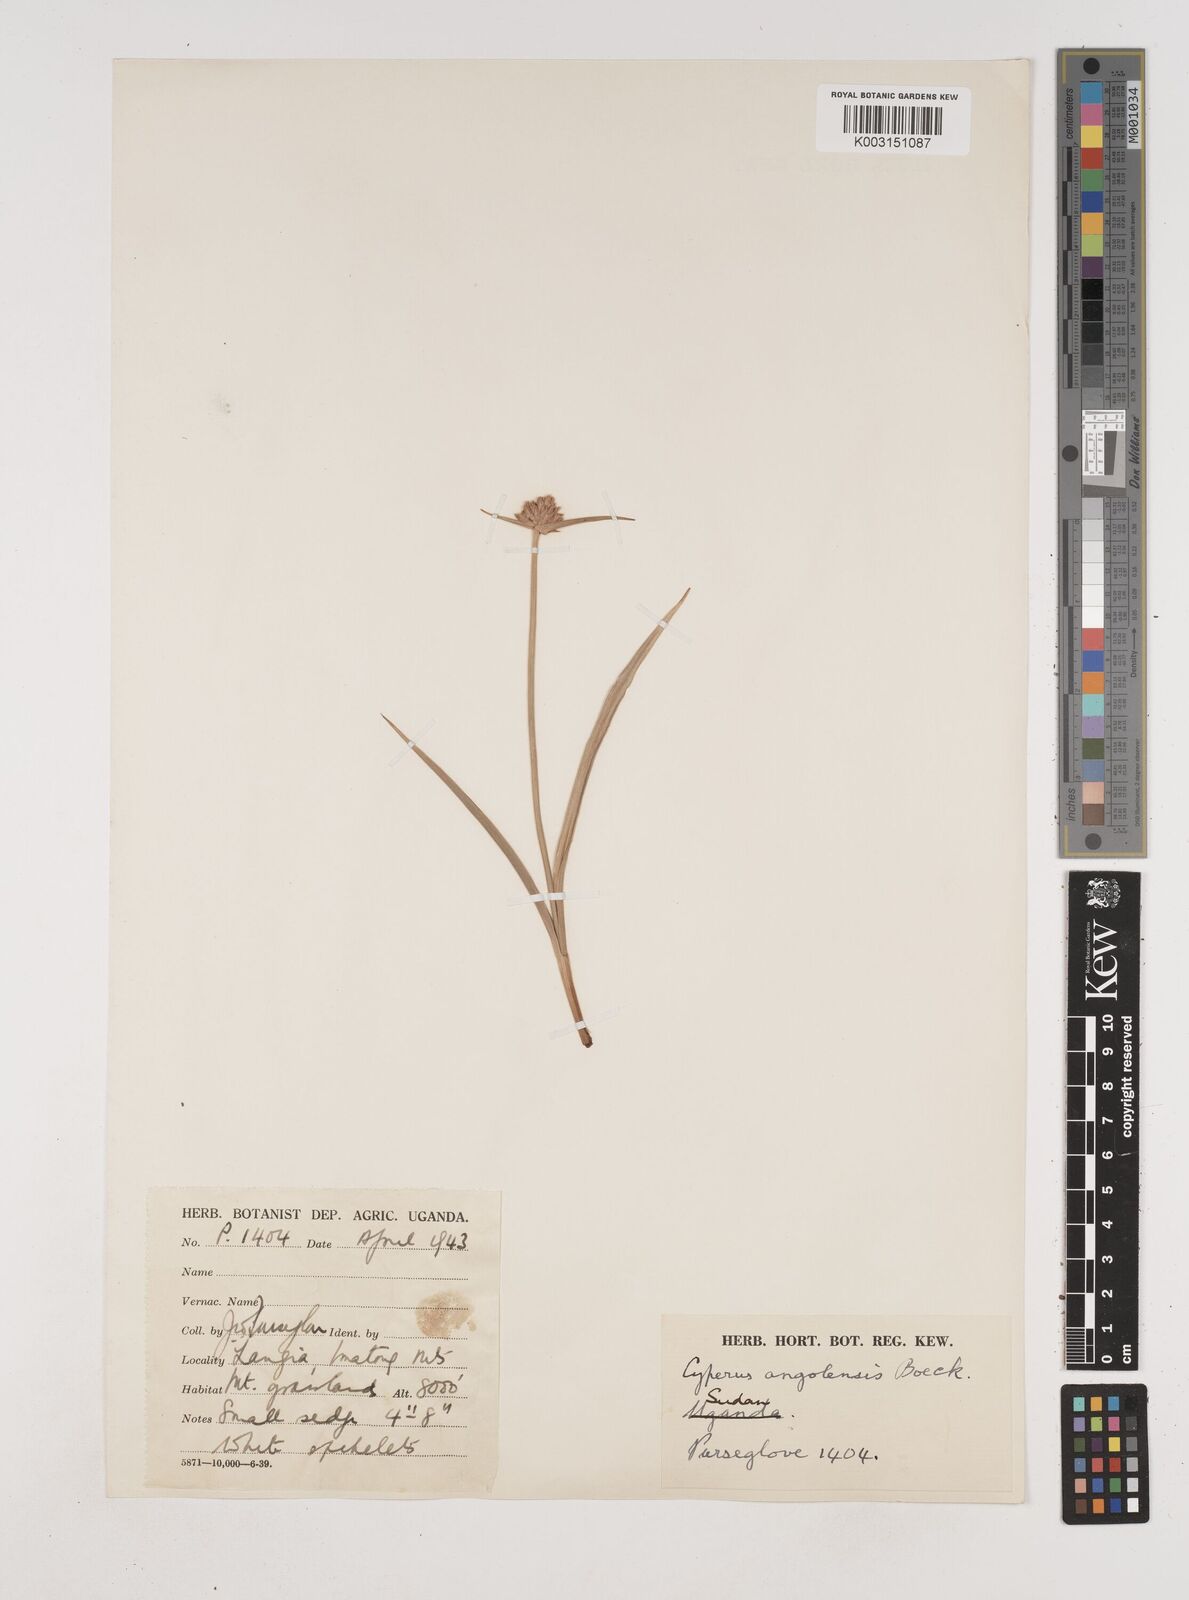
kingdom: Plantae
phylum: Tracheophyta
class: Liliopsida
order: Poales
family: Cyperaceae
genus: Cyperus
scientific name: Cyperus angolensis
